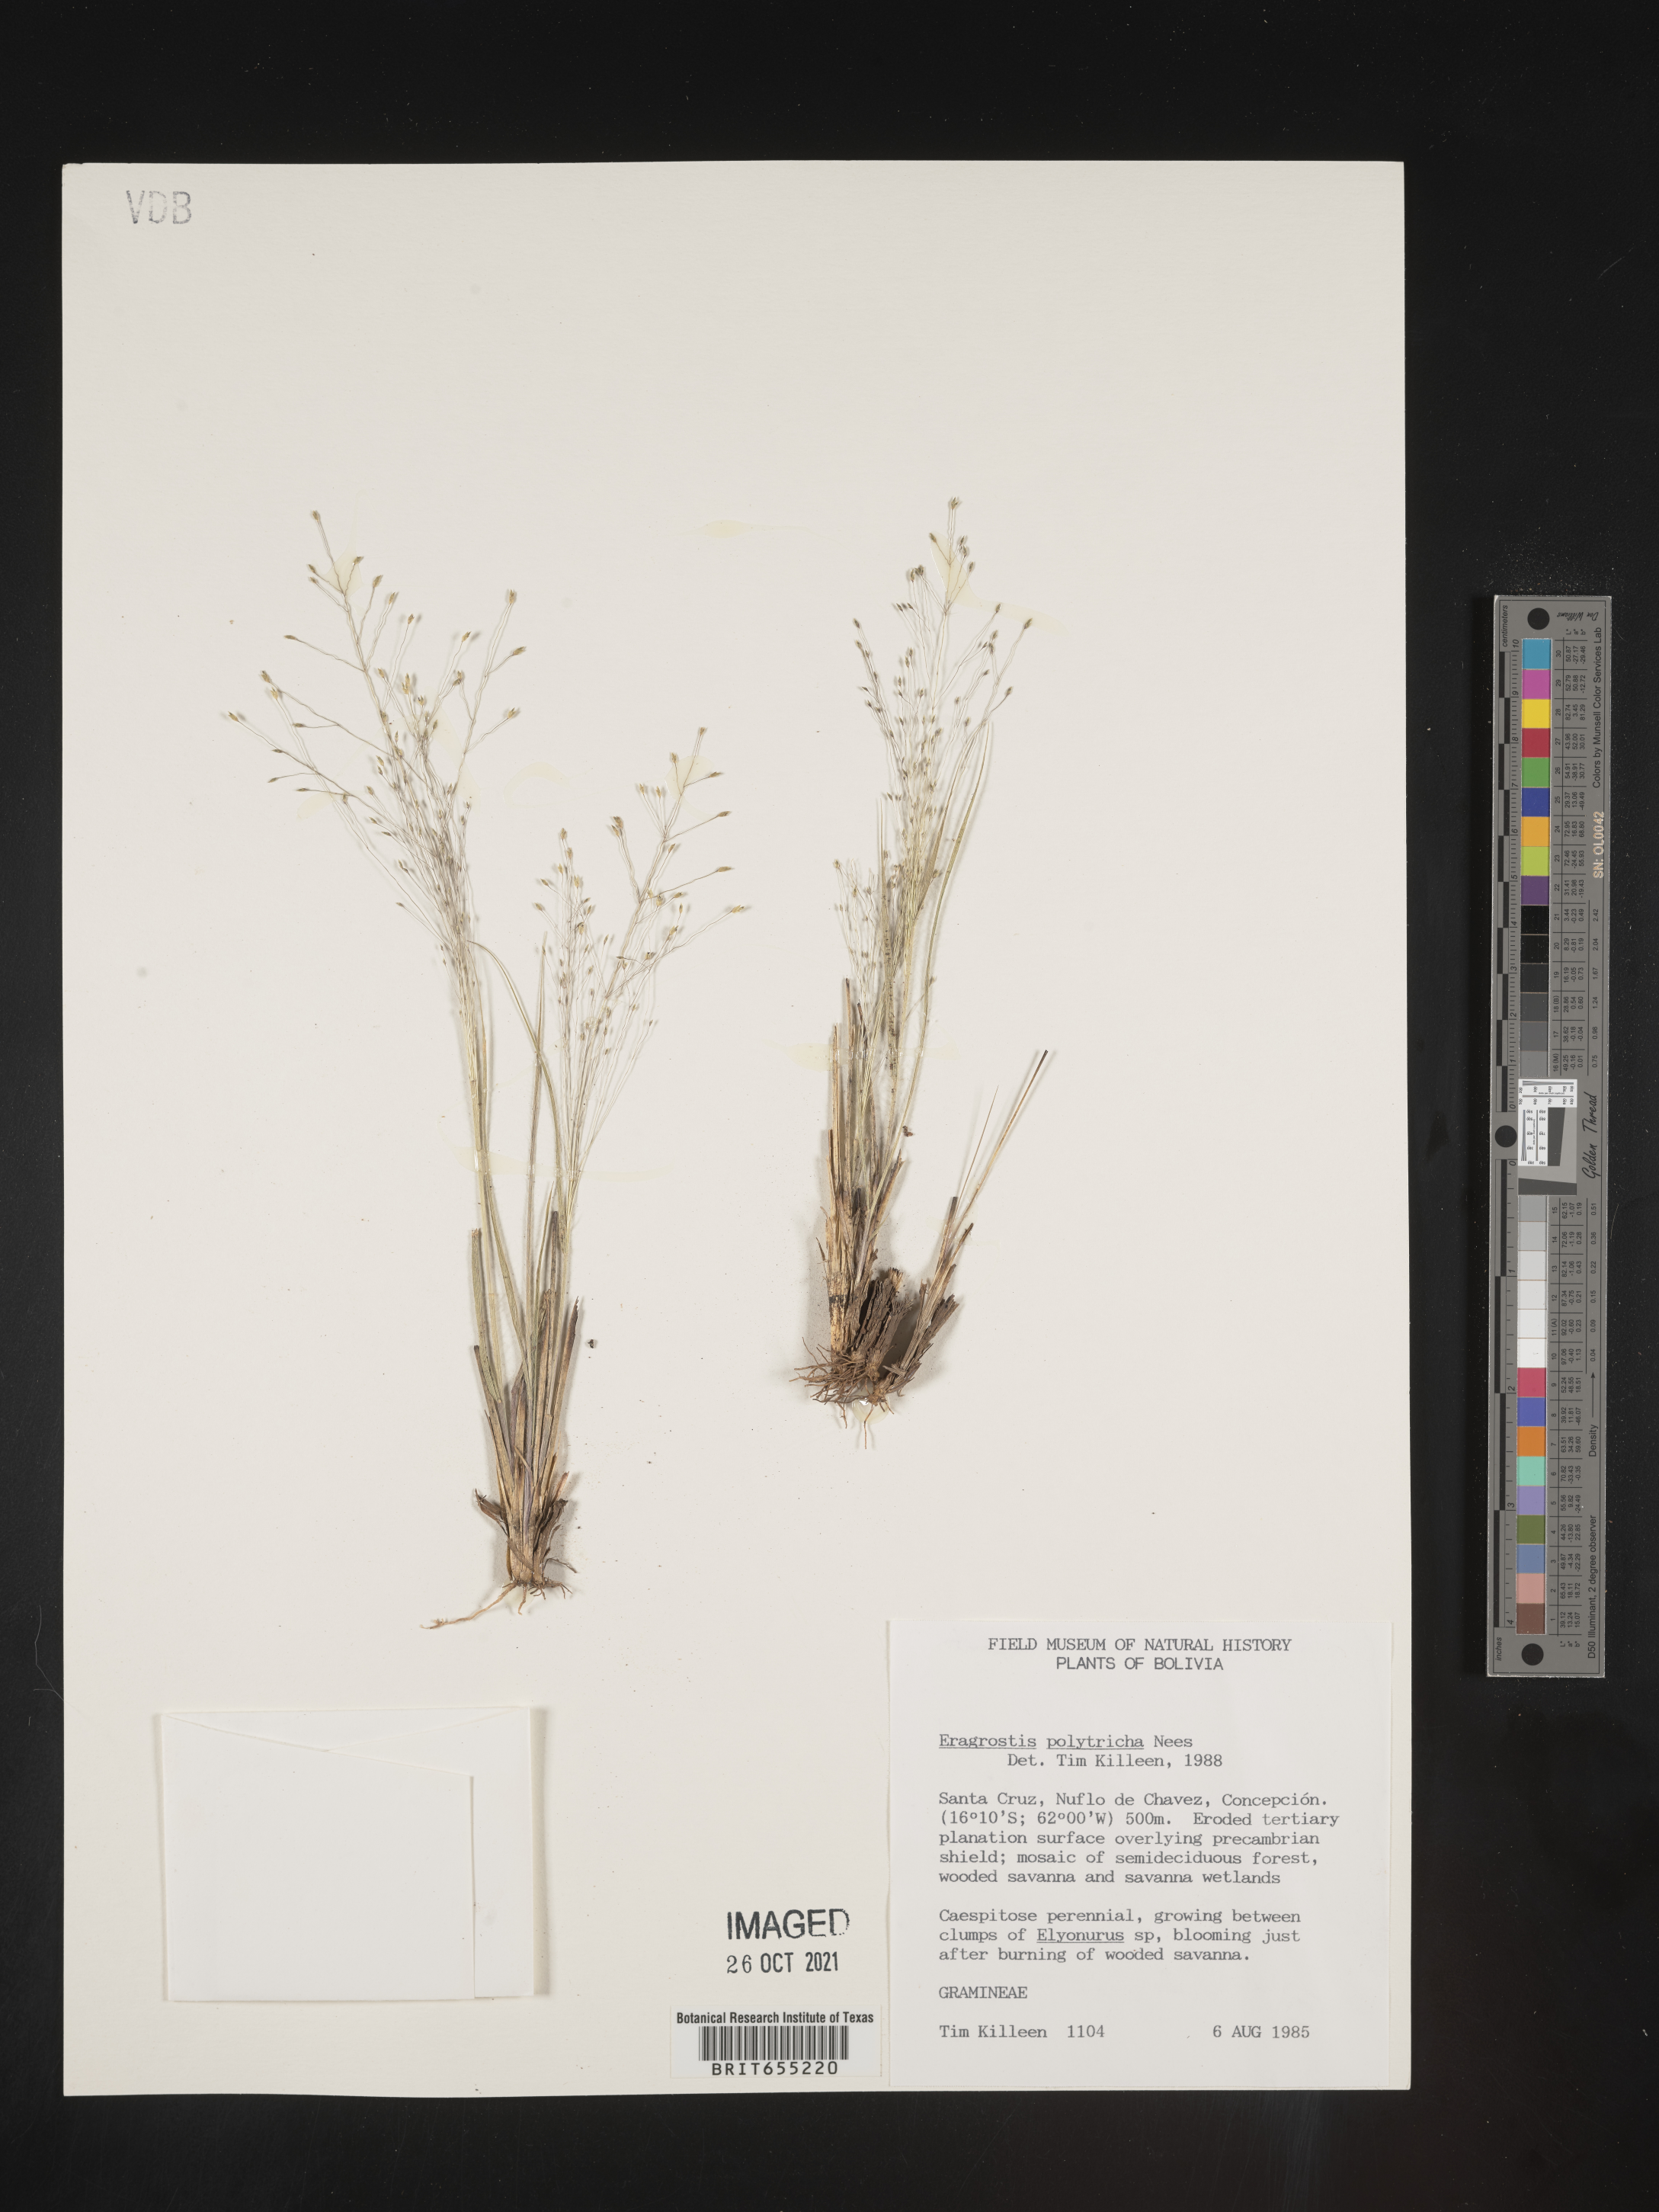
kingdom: Plantae
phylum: Tracheophyta
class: Liliopsida
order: Poales
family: Poaceae
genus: Eragrostis
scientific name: Eragrostis
